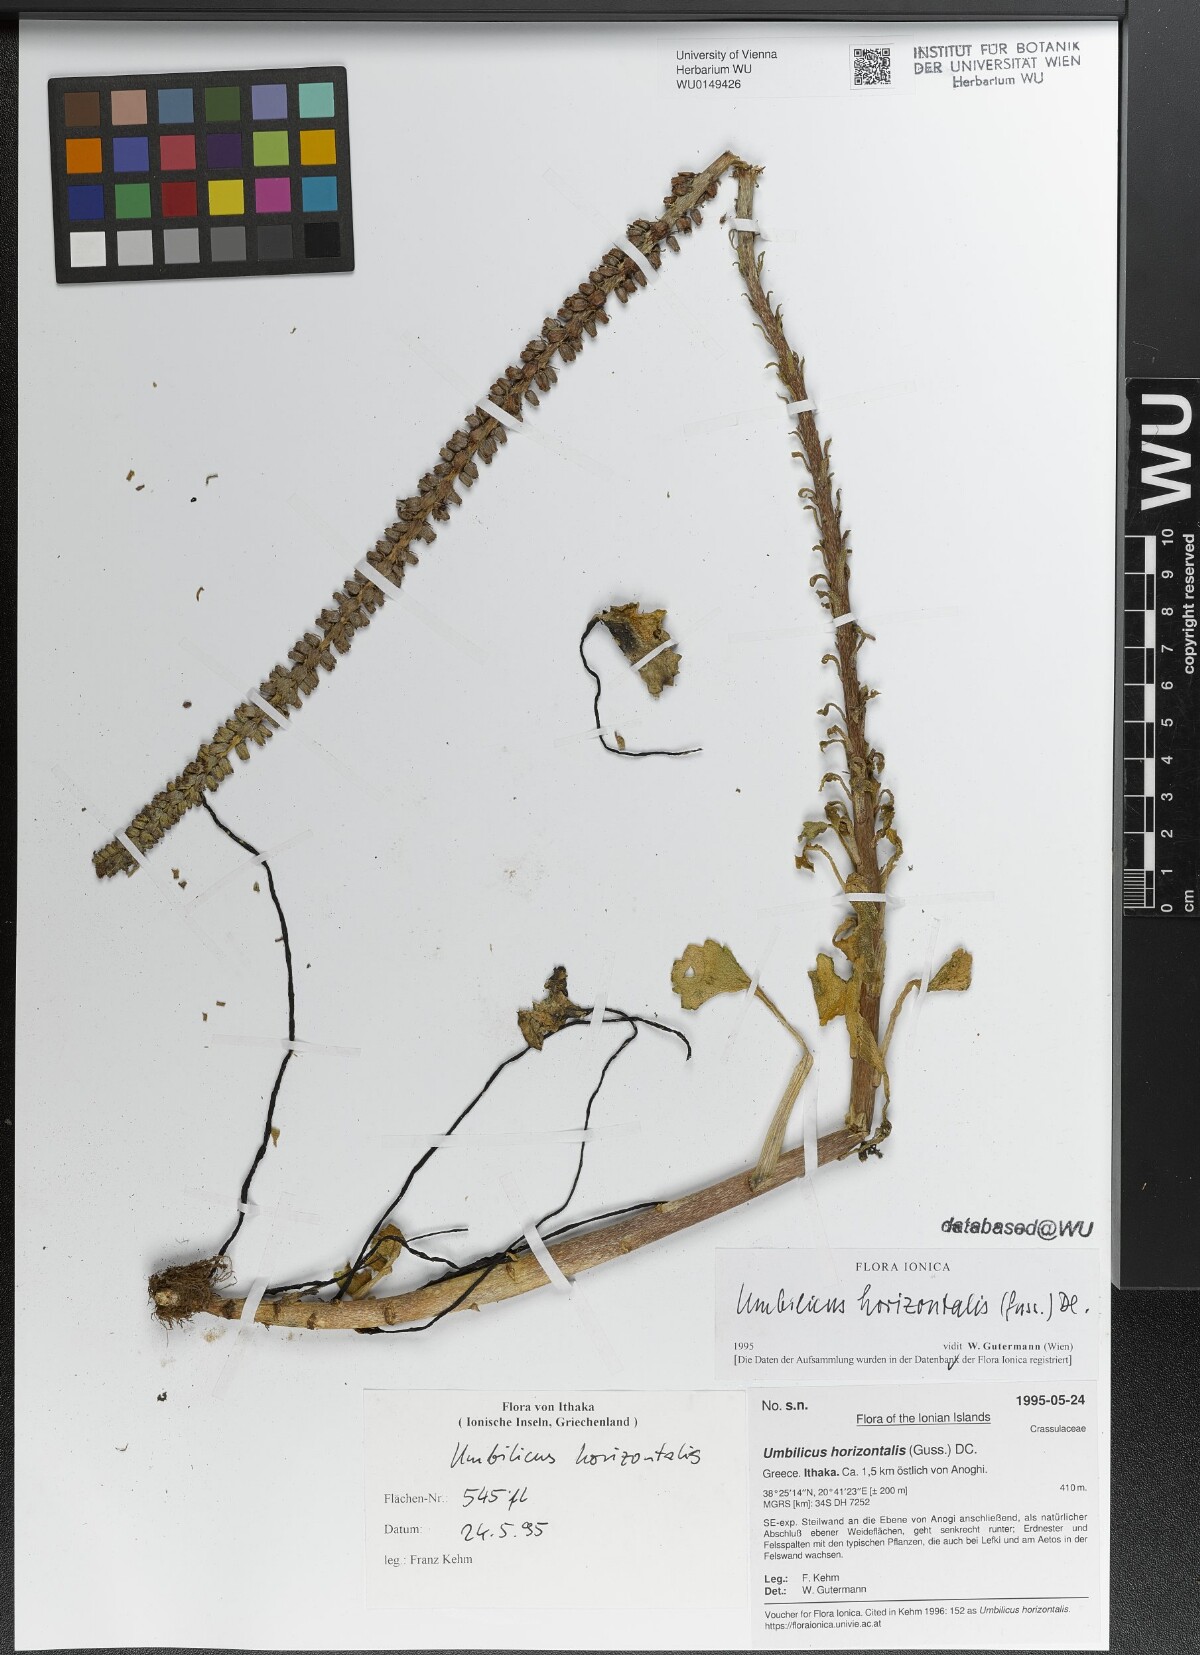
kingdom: Plantae
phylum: Tracheophyta
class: Magnoliopsida
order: Saxifragales
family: Crassulaceae
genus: Umbilicus
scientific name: Umbilicus horizontalis
